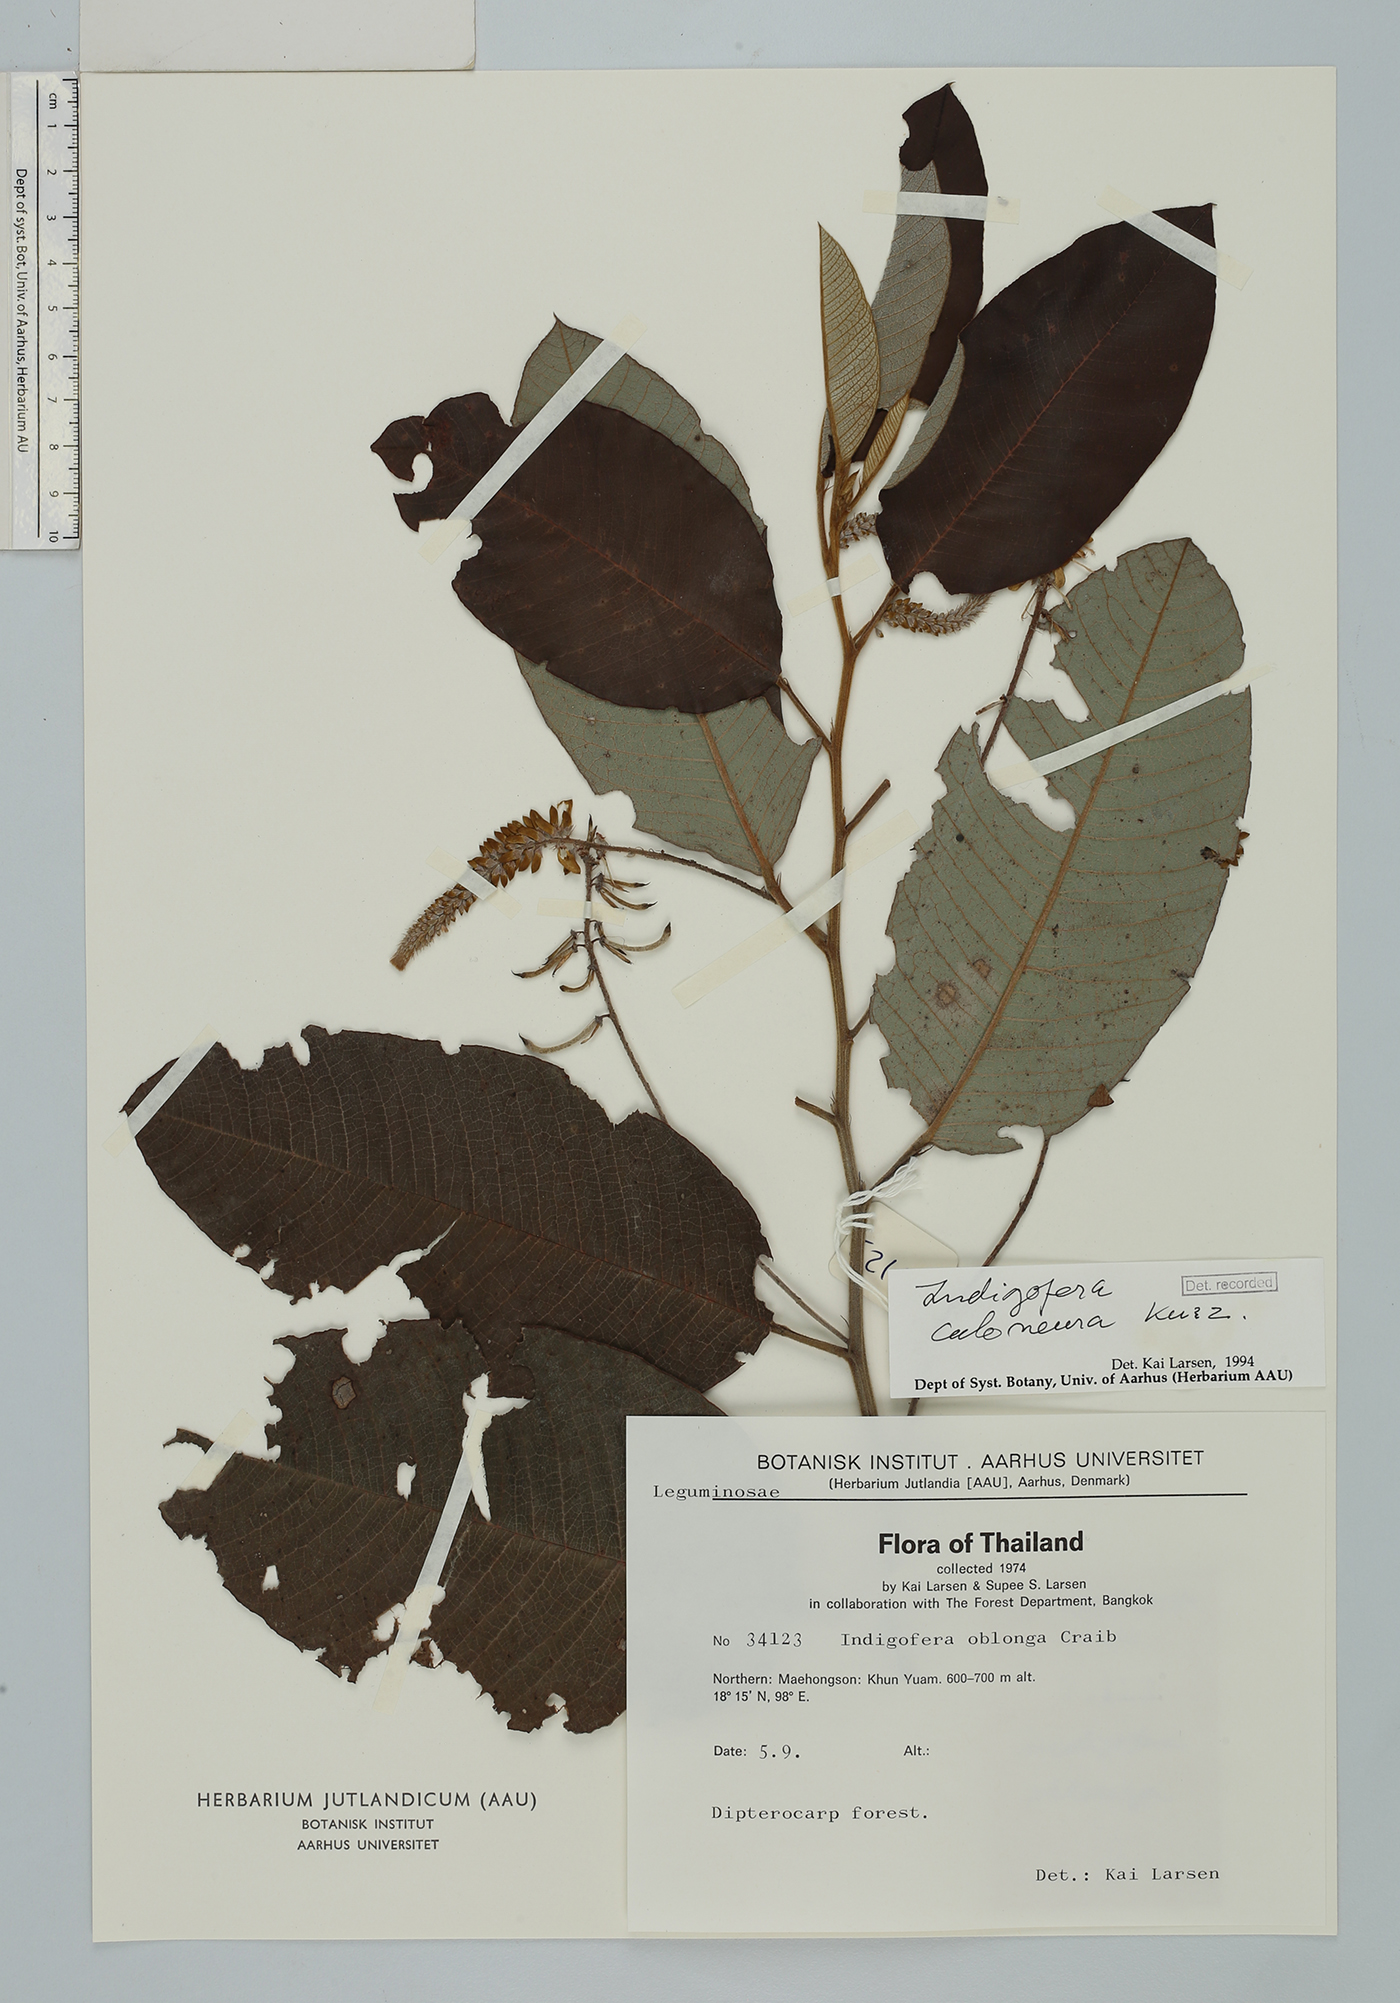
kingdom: Plantae
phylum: Tracheophyta
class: Magnoliopsida
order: Fabales
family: Fabaceae
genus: Indigofera
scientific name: Indigofera caloneura
